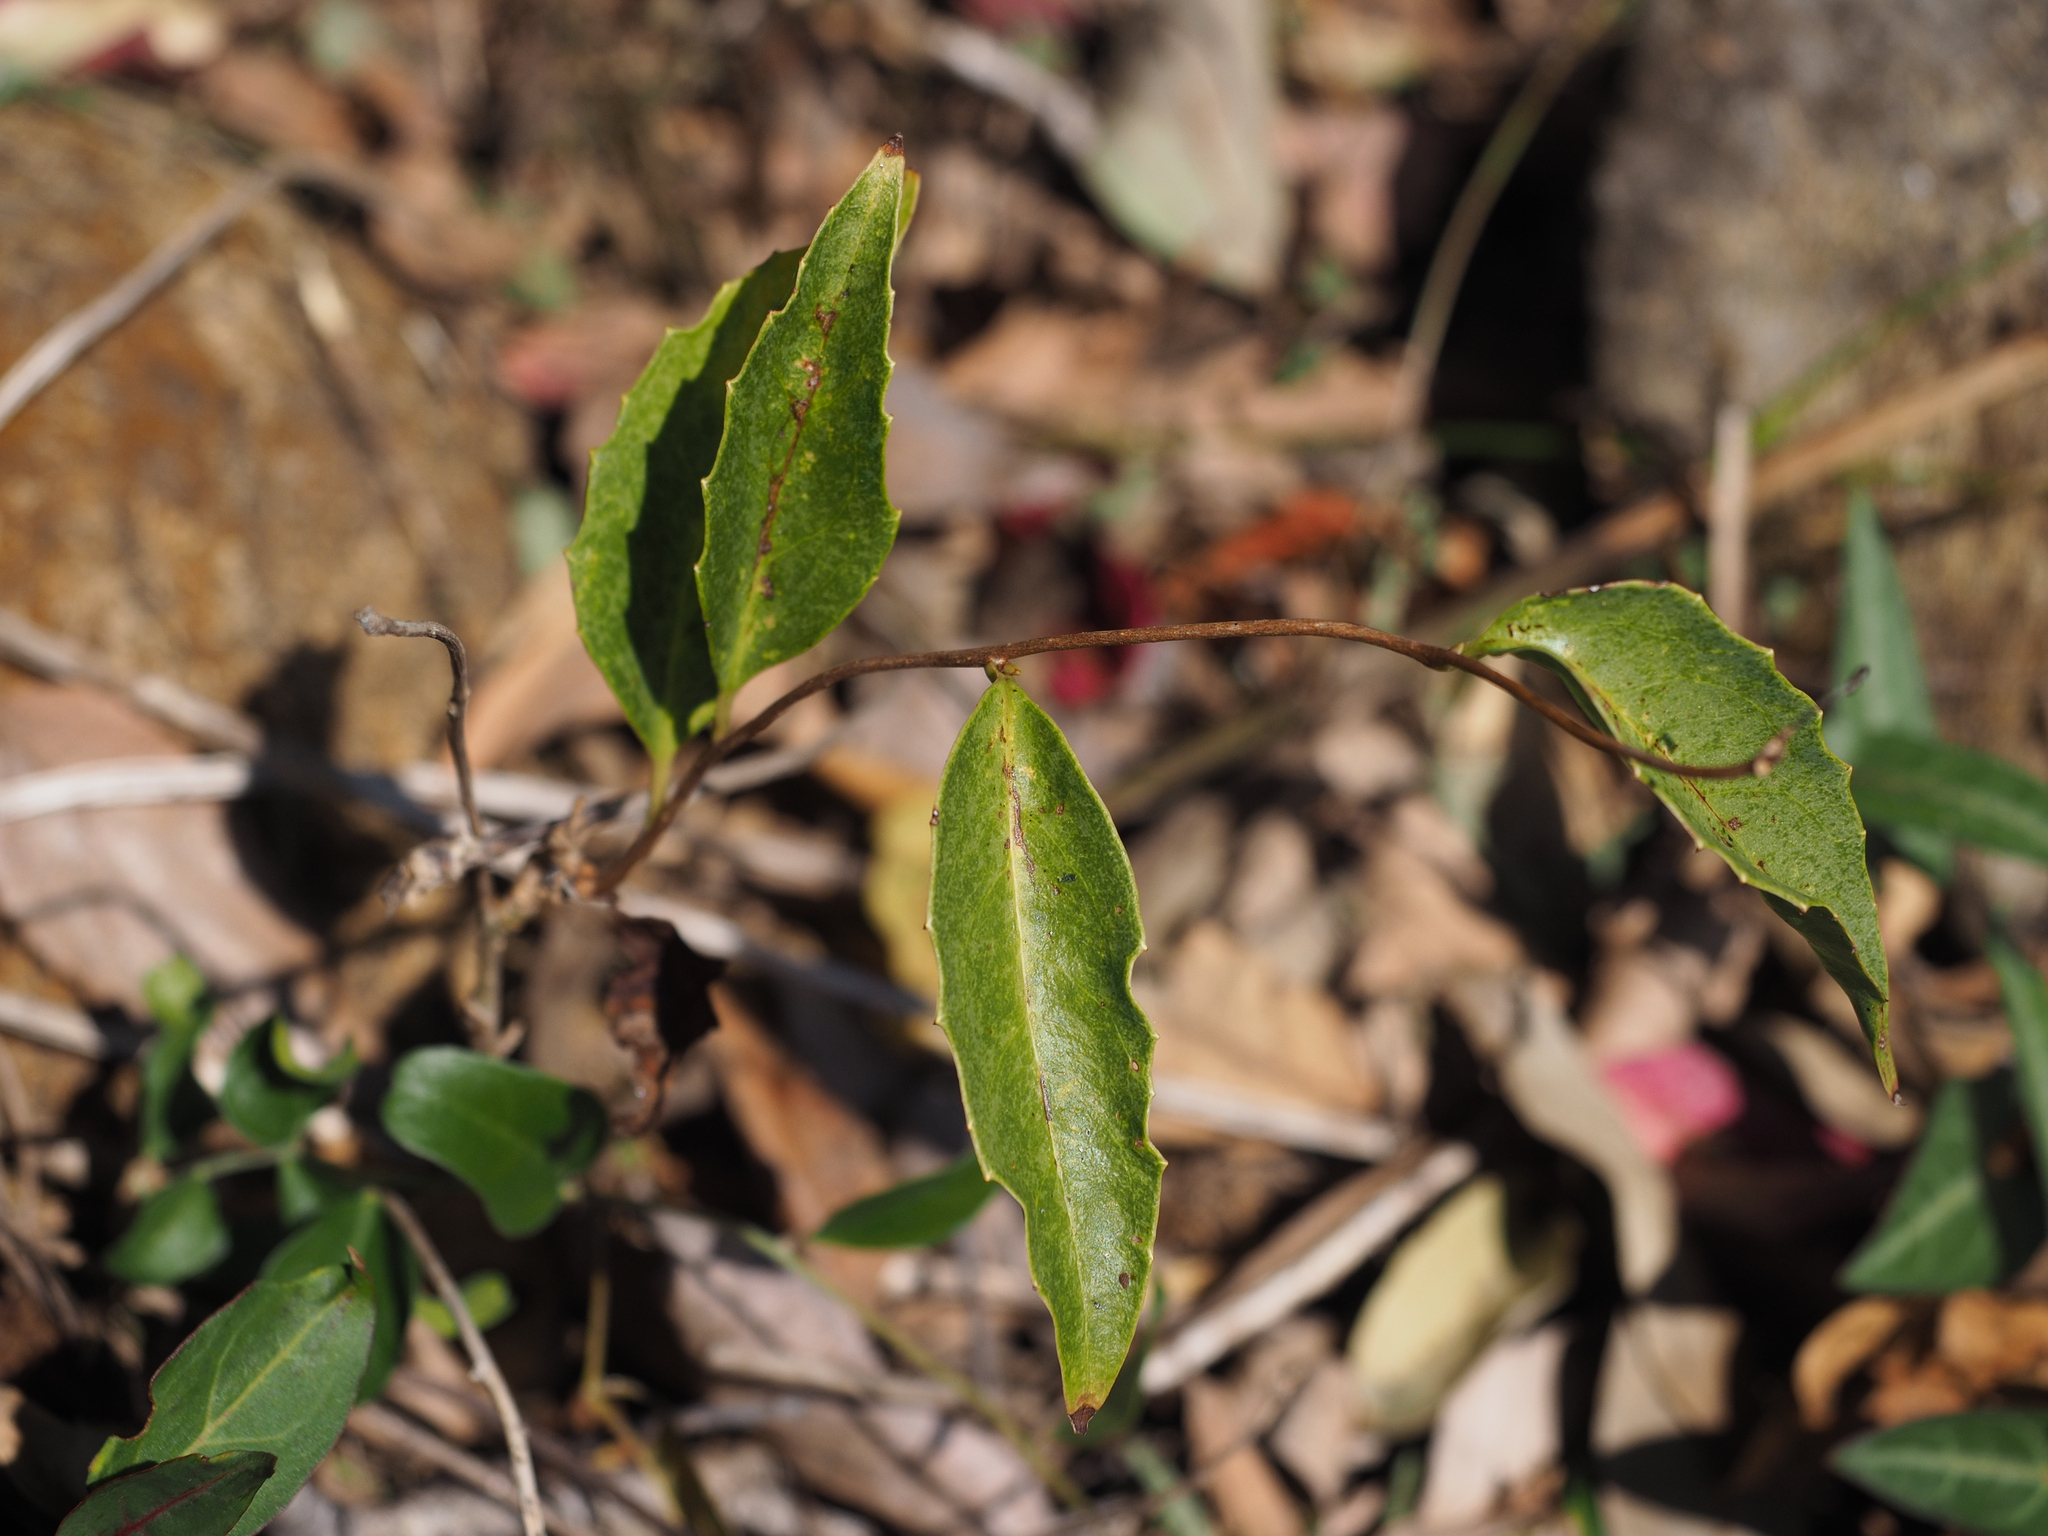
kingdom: Plantae
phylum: Tracheophyta
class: Magnoliopsida
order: Austrobaileyales
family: Schisandraceae
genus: Kadsura
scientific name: Kadsura japonica
